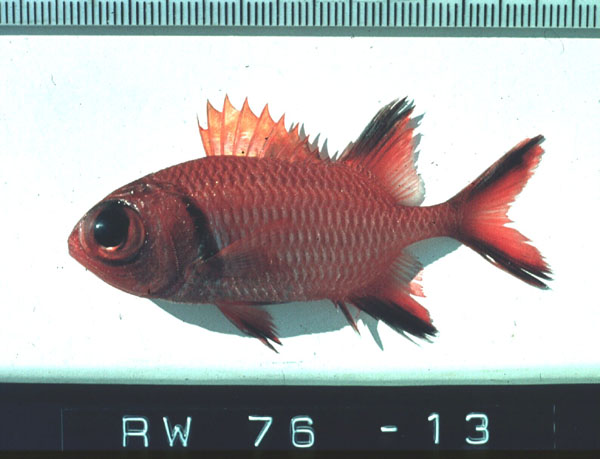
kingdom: Animalia
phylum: Chordata
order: Beryciformes
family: Holocentridae
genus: Myripristis
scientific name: Myripristis murdjan
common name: Big-eye soldierfish
